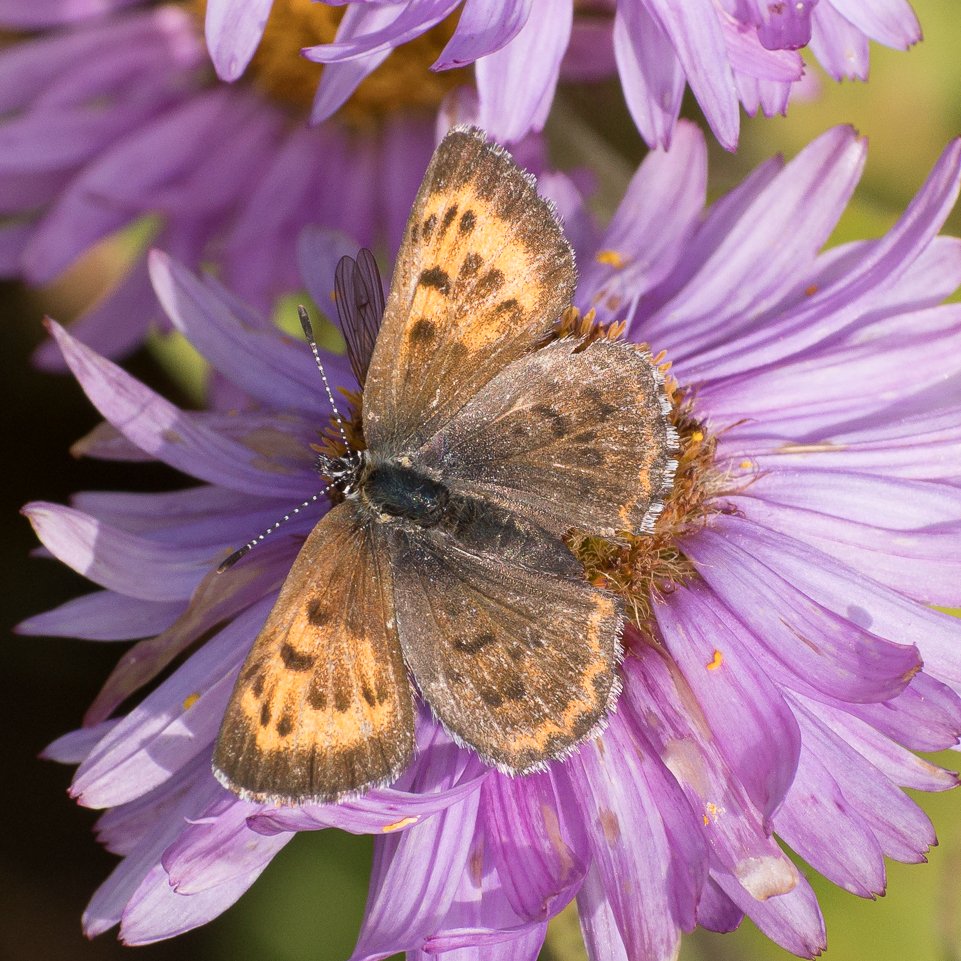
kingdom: Animalia
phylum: Arthropoda
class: Insecta
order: Lepidoptera
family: Lycaenidae
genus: Lycaena
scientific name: Lycaena mariposa
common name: Mariposa Copper
